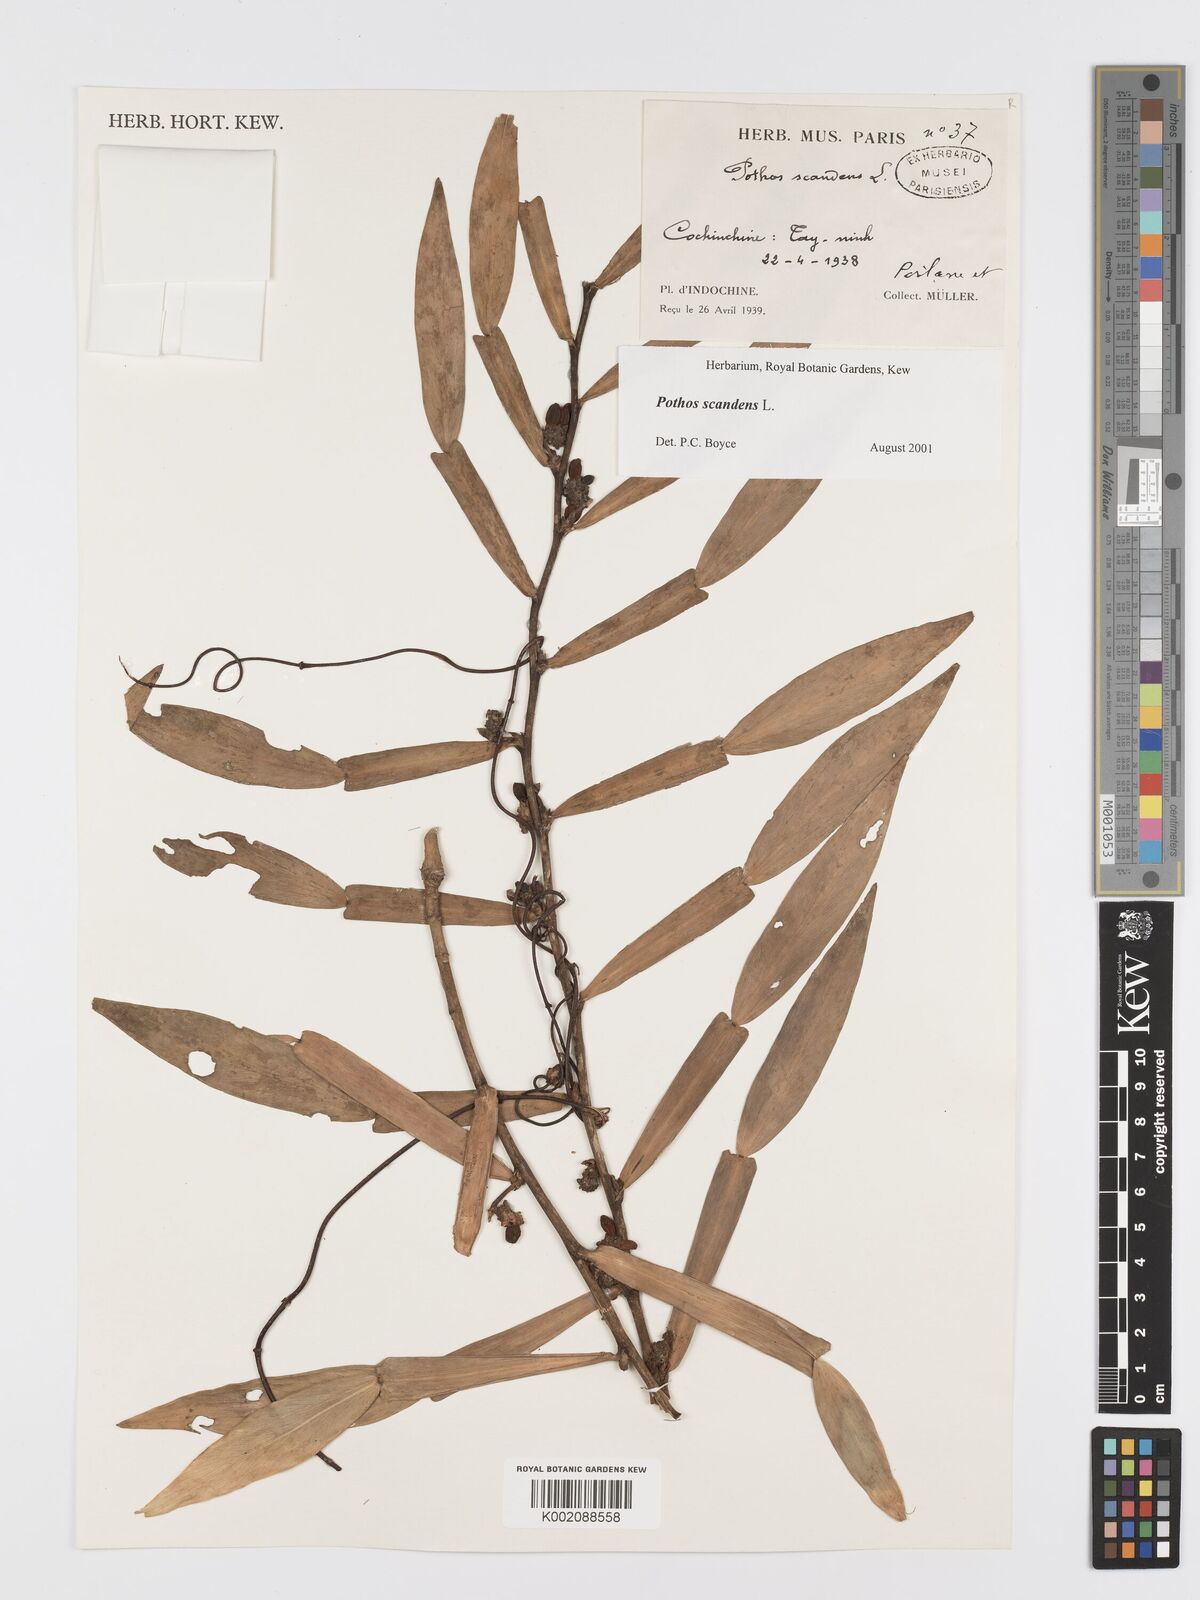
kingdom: Plantae
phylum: Tracheophyta
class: Liliopsida
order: Alismatales
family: Araceae
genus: Pothos
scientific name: Pothos scandens
